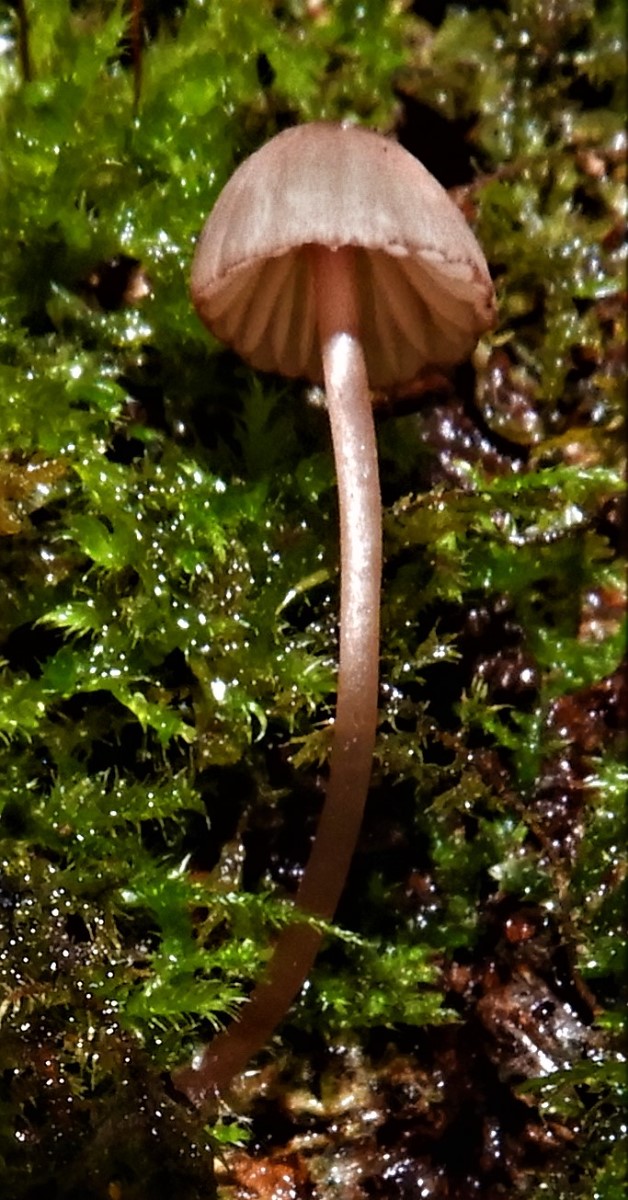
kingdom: Fungi
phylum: Basidiomycota
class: Agaricomycetes
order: Agaricales
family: Mycenaceae
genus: Mycena
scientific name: Mycena sanguinolenta
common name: rødmælket huesvamp
